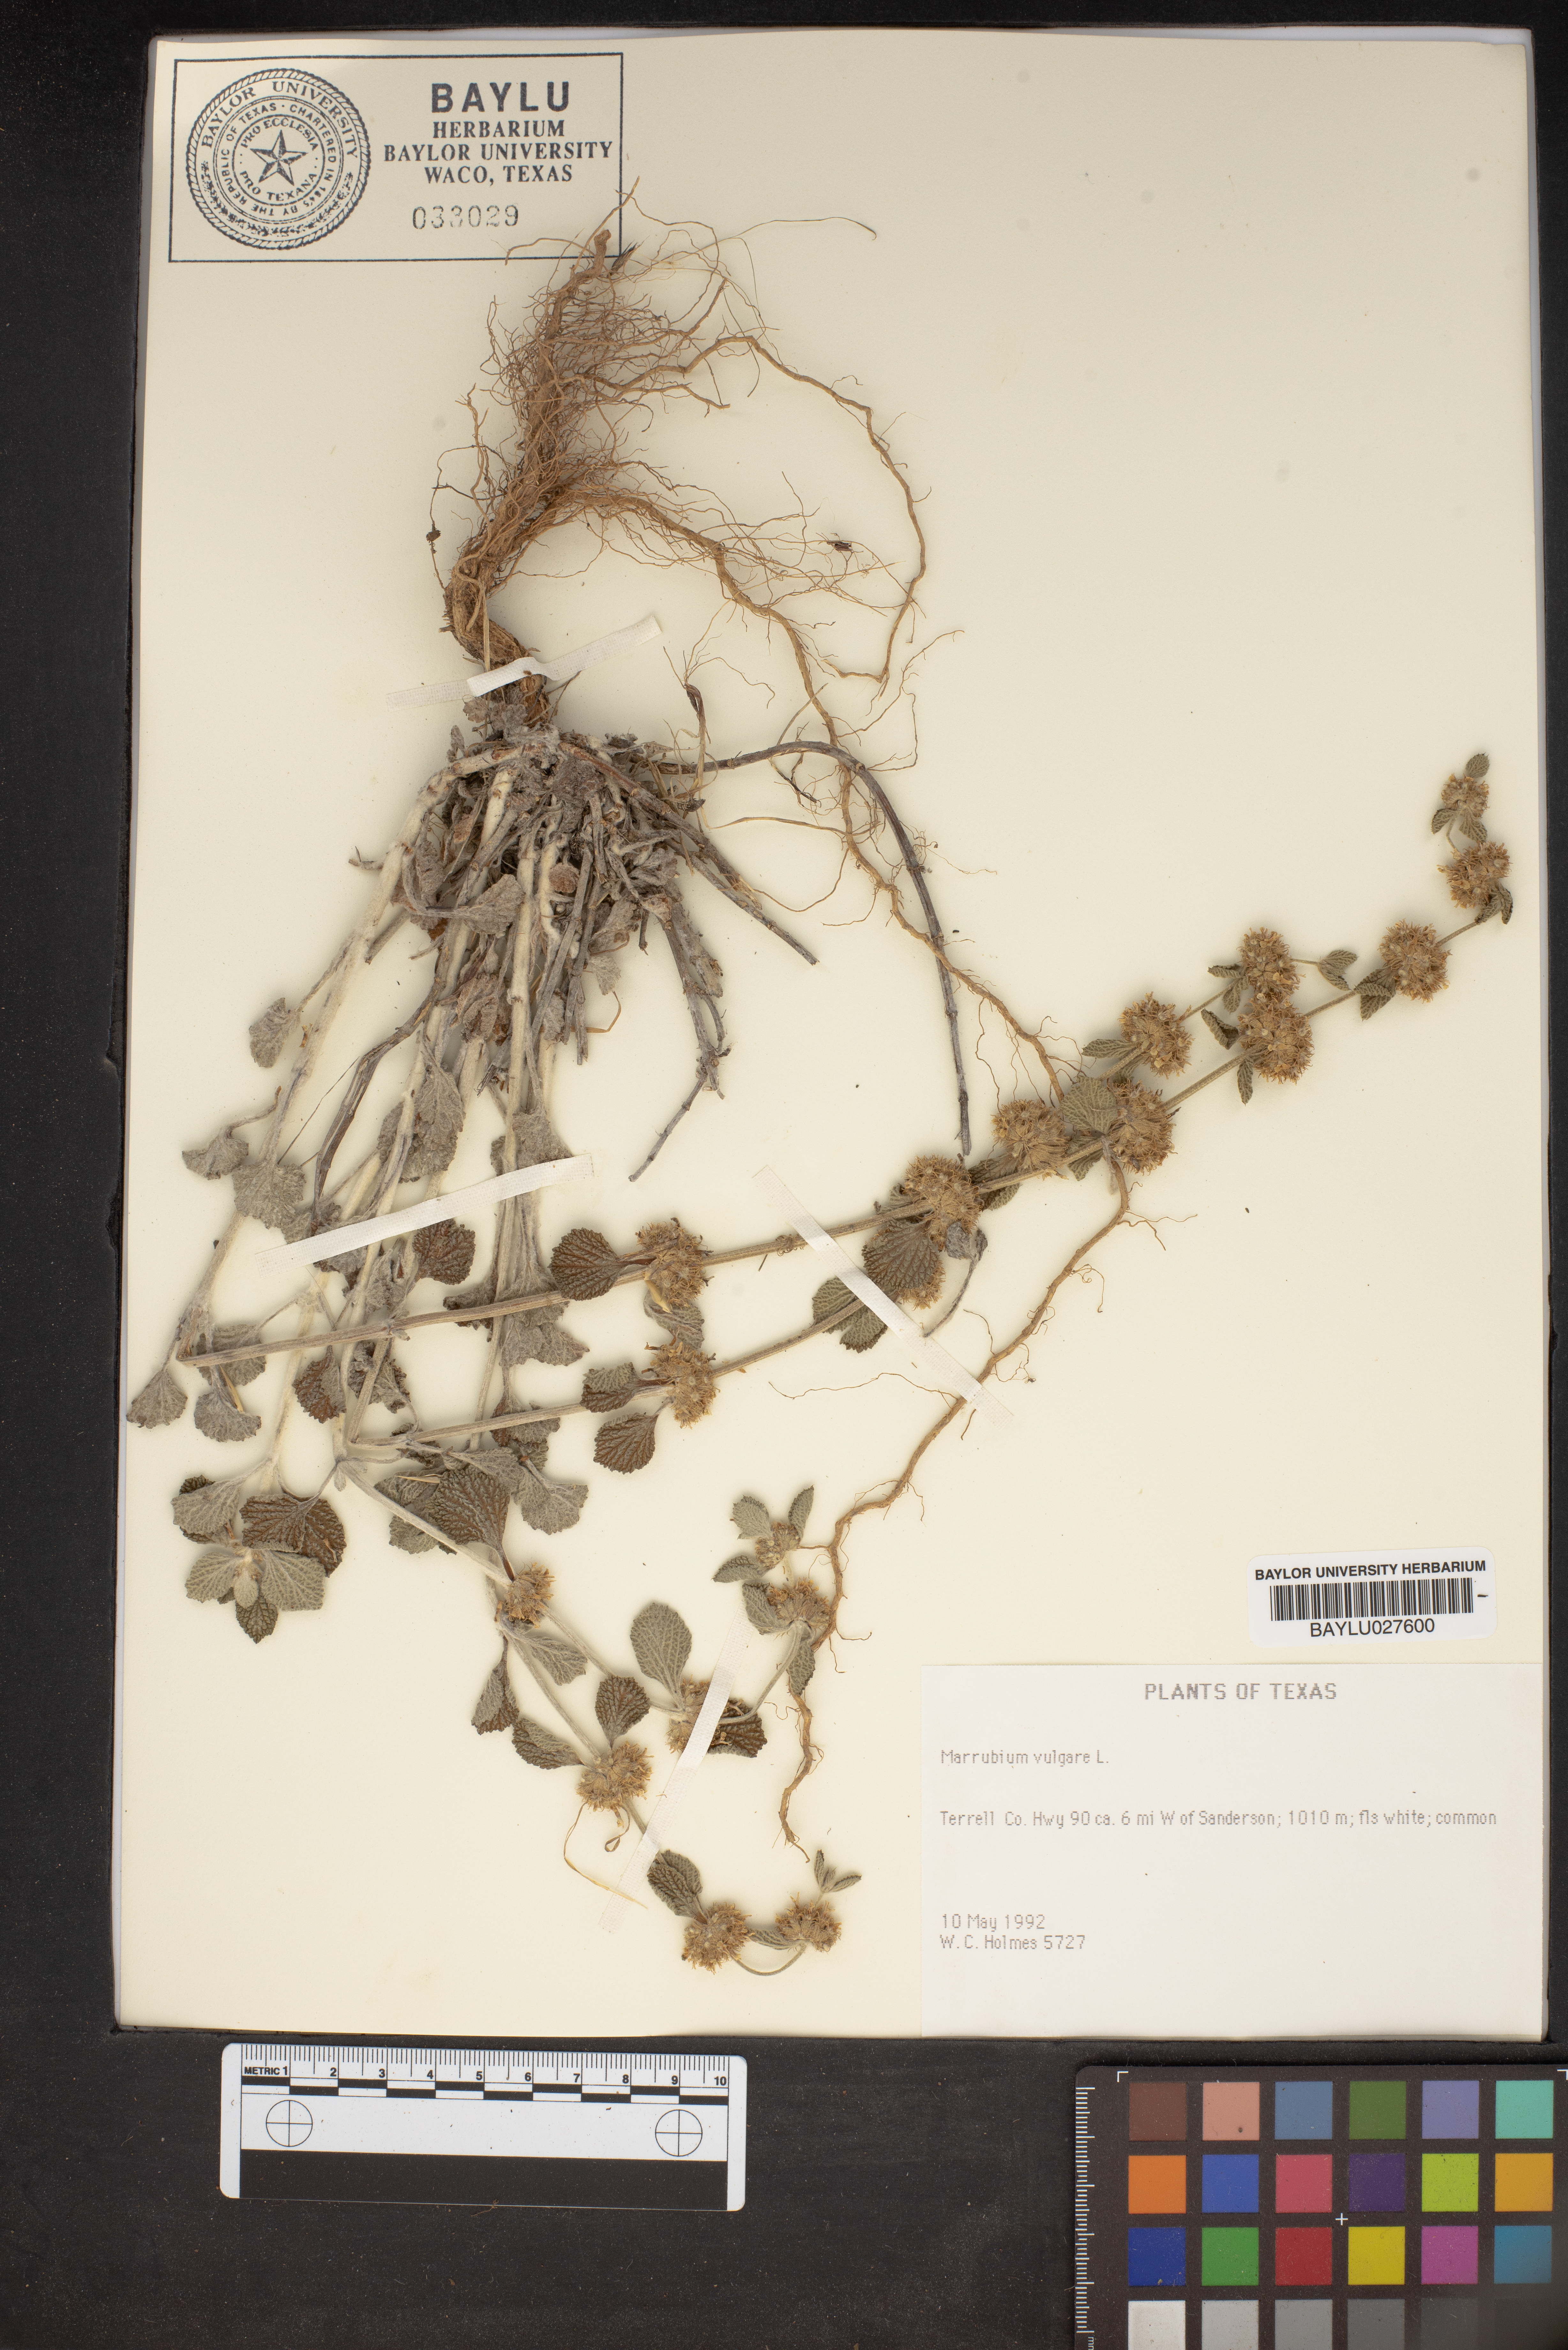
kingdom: Plantae
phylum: Tracheophyta
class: Magnoliopsida
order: Lamiales
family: Lamiaceae
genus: Marrubium
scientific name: Marrubium vulgare
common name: Horehound
